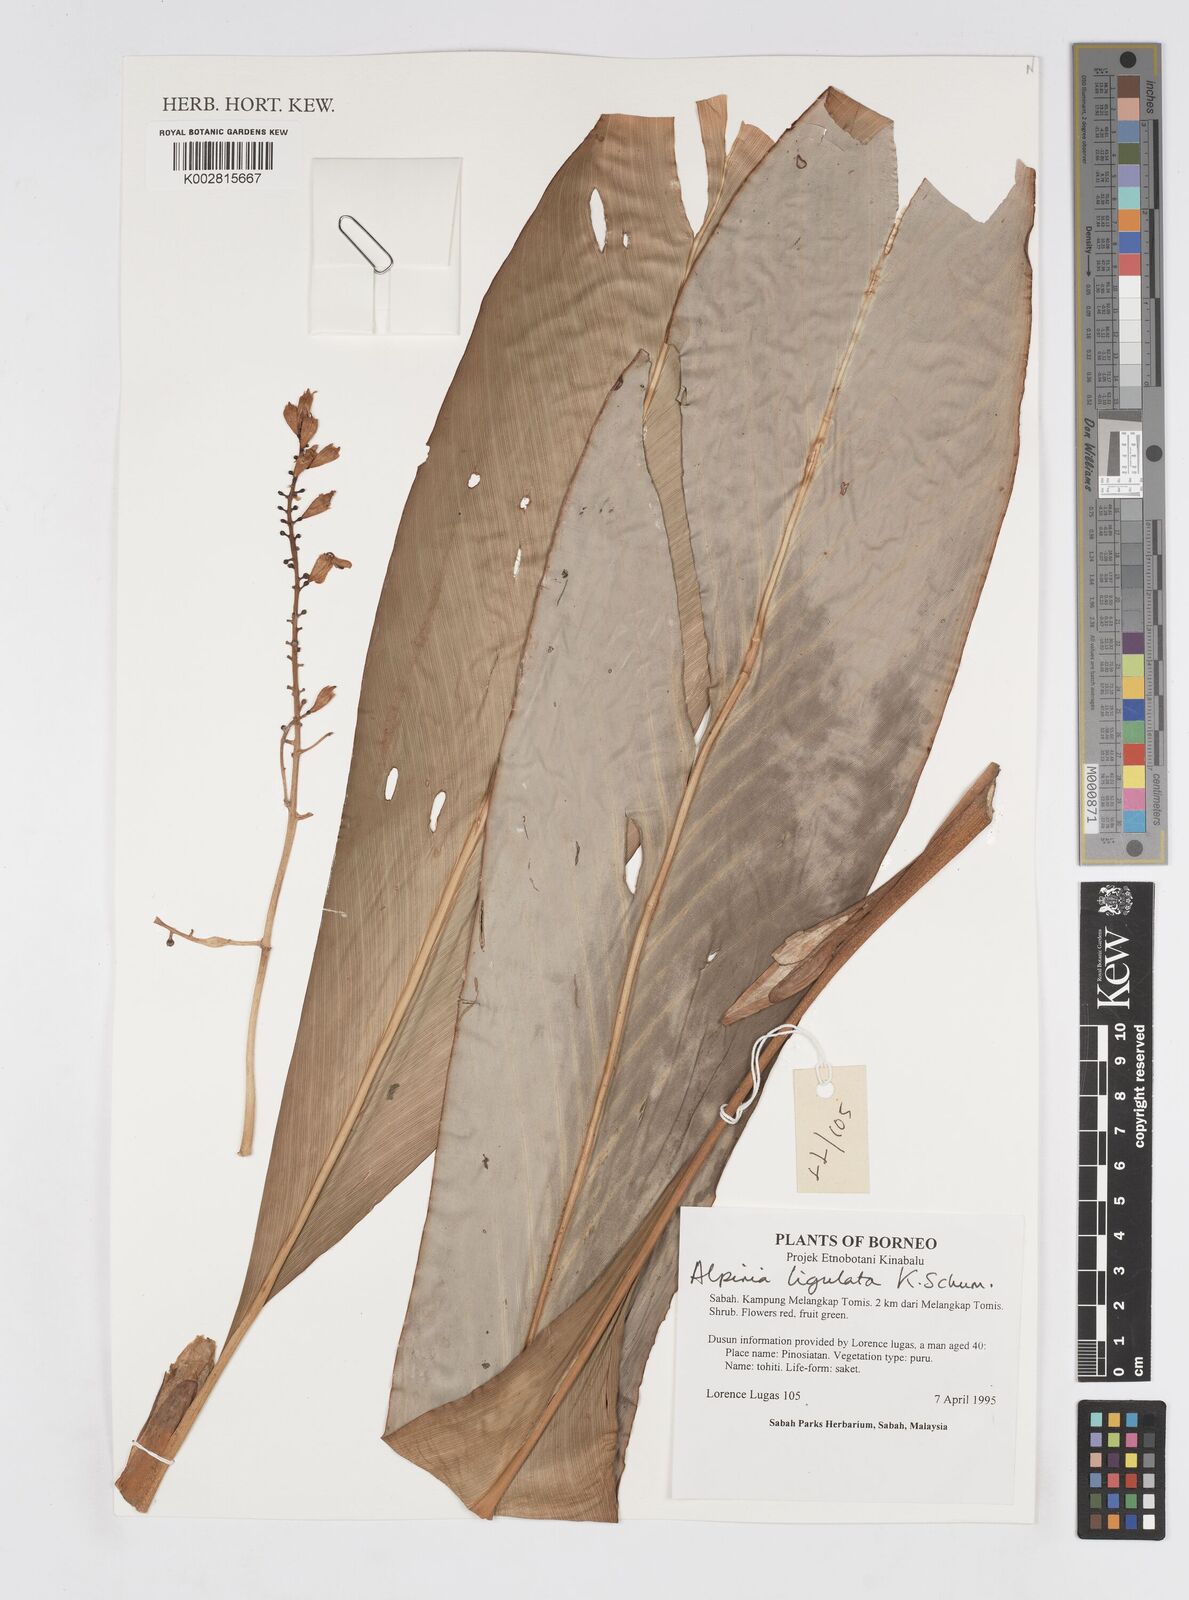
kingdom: Plantae
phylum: Tracheophyta
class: Liliopsida
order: Zingiberales
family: Zingiberaceae
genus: Alpinia
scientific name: Alpinia ligulata
